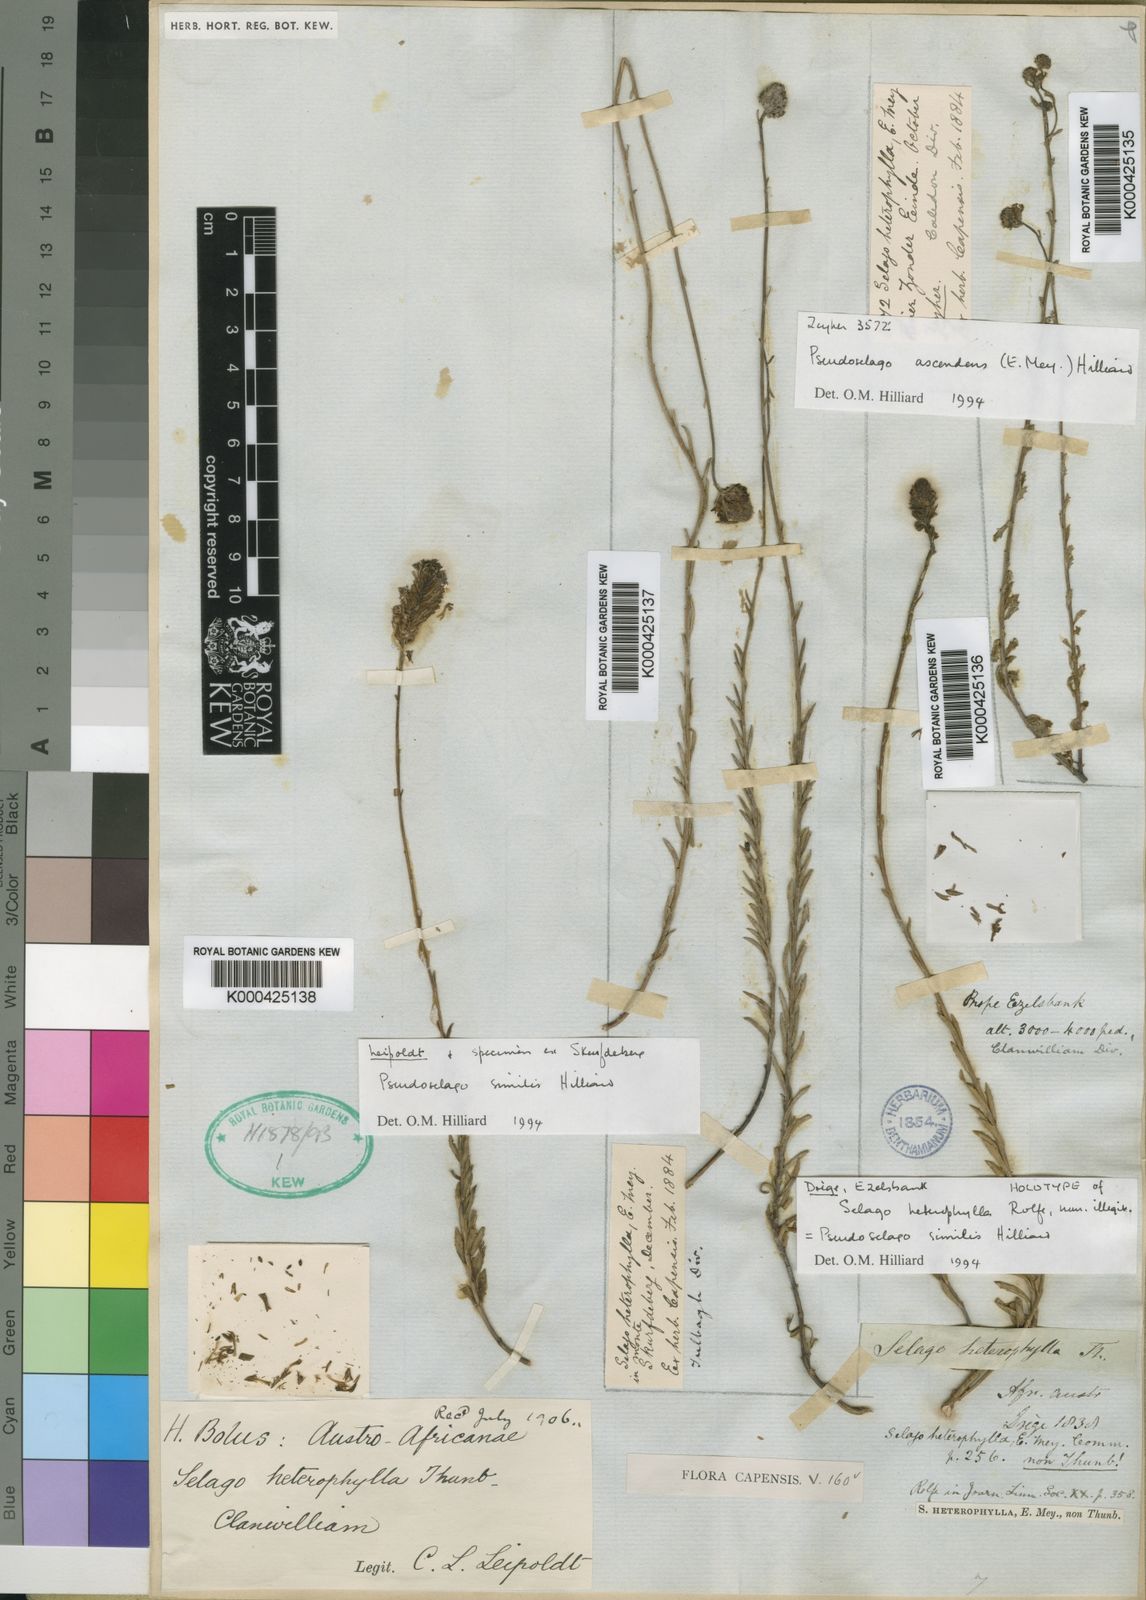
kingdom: Plantae
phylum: Tracheophyta
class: Magnoliopsida
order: Lamiales
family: Scrophulariaceae
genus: Pseudoselago
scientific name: Pseudoselago similis
